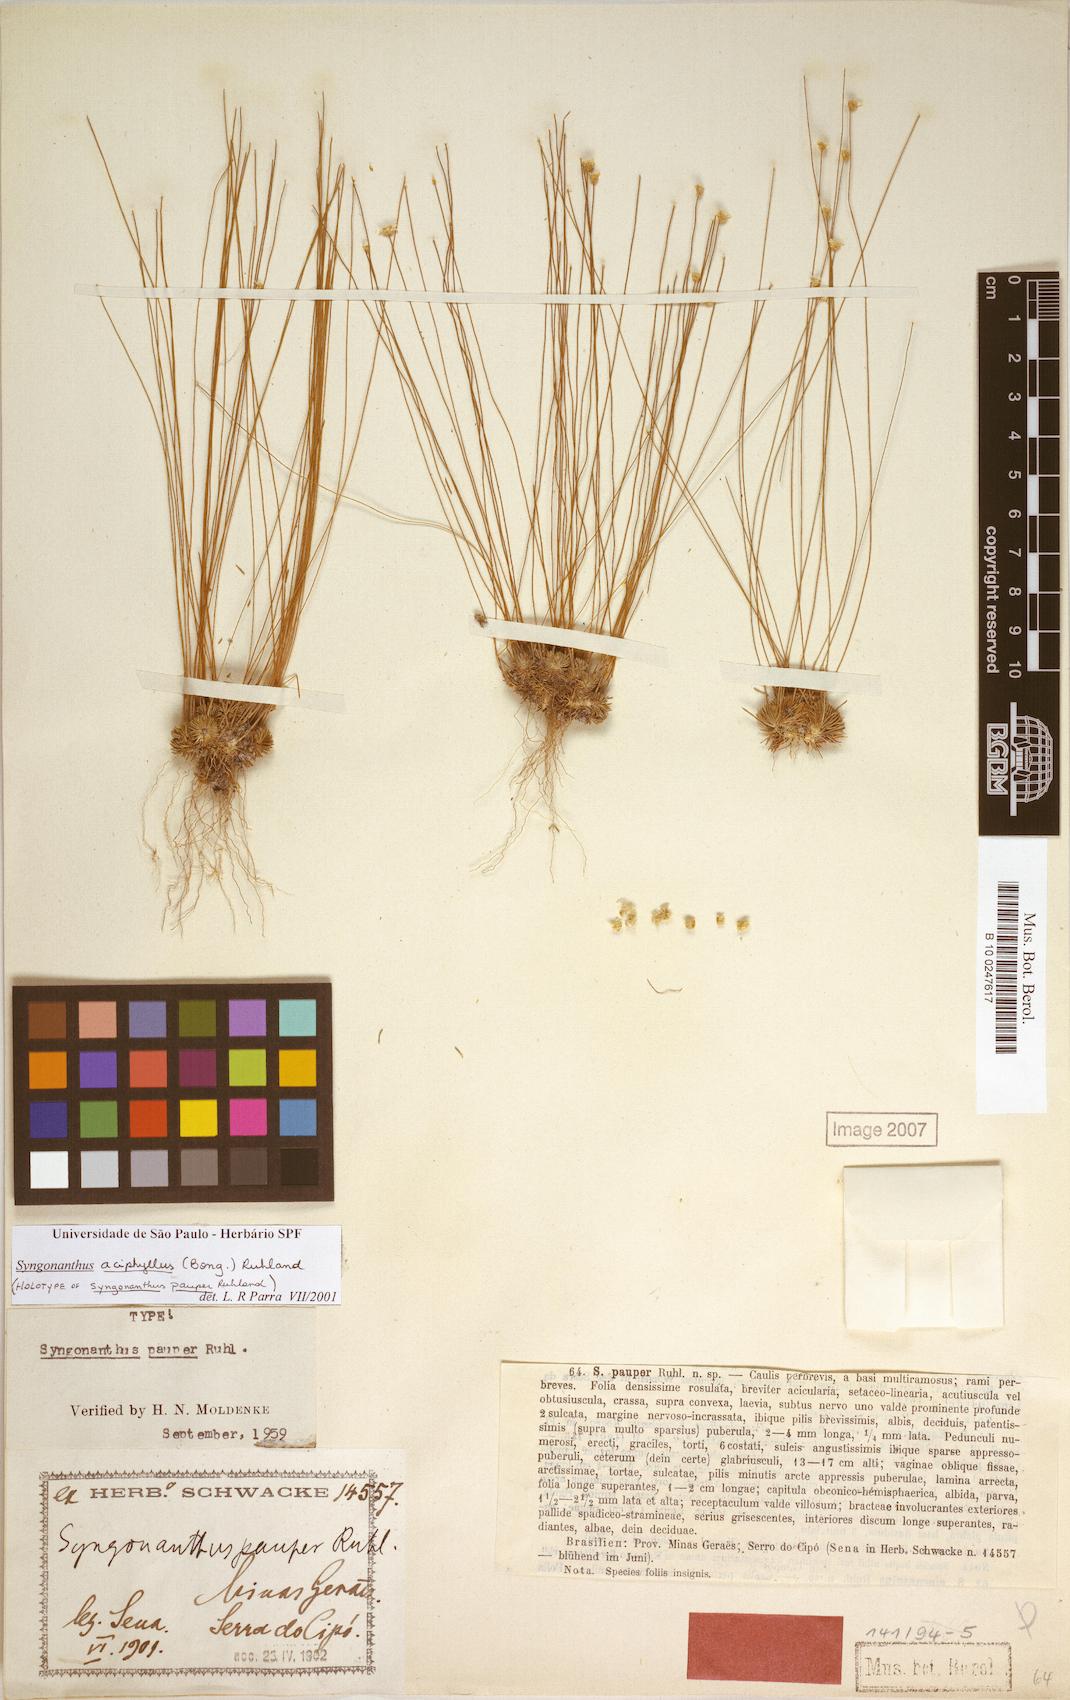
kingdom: Plantae
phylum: Tracheophyta
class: Liliopsida
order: Poales
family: Eriocaulaceae
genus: Comanthera
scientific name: Comanthera aciphylla
